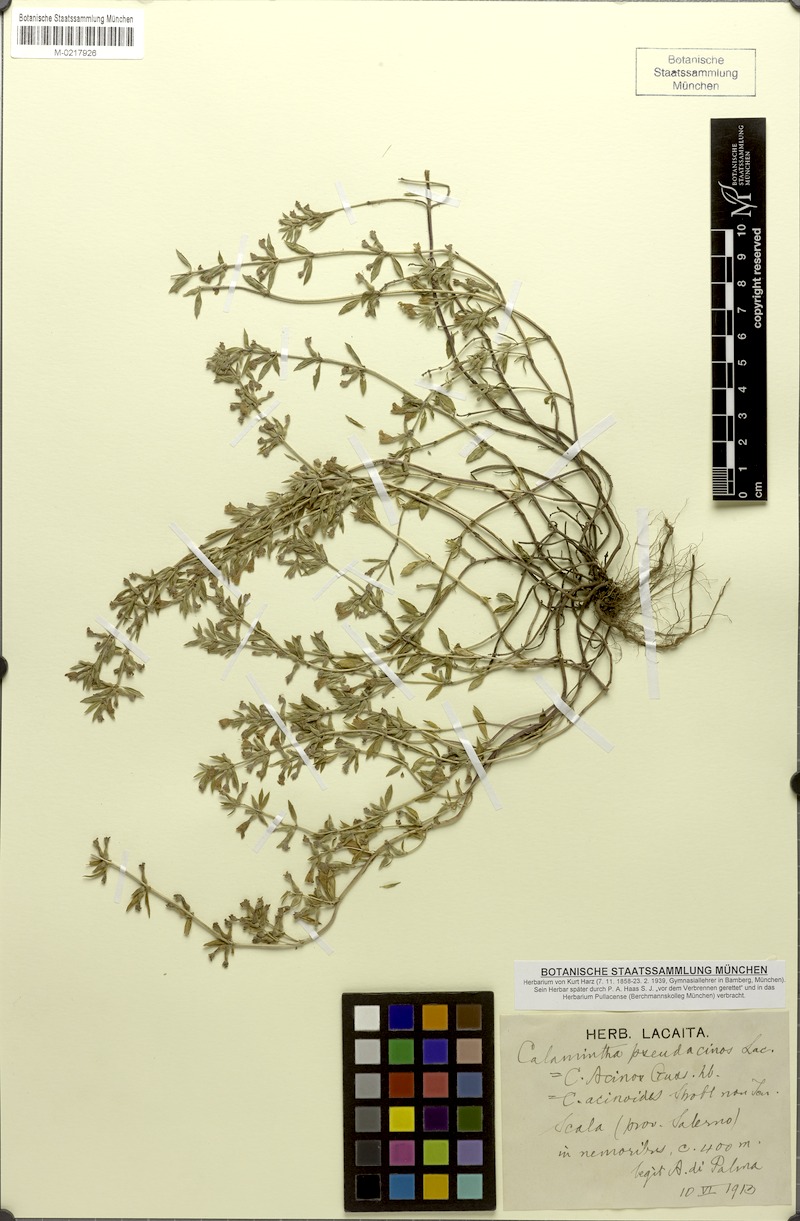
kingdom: Plantae
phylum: Tracheophyta
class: Magnoliopsida
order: Lamiales
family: Lamiaceae
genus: Clinopodium
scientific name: Clinopodium alpinum
